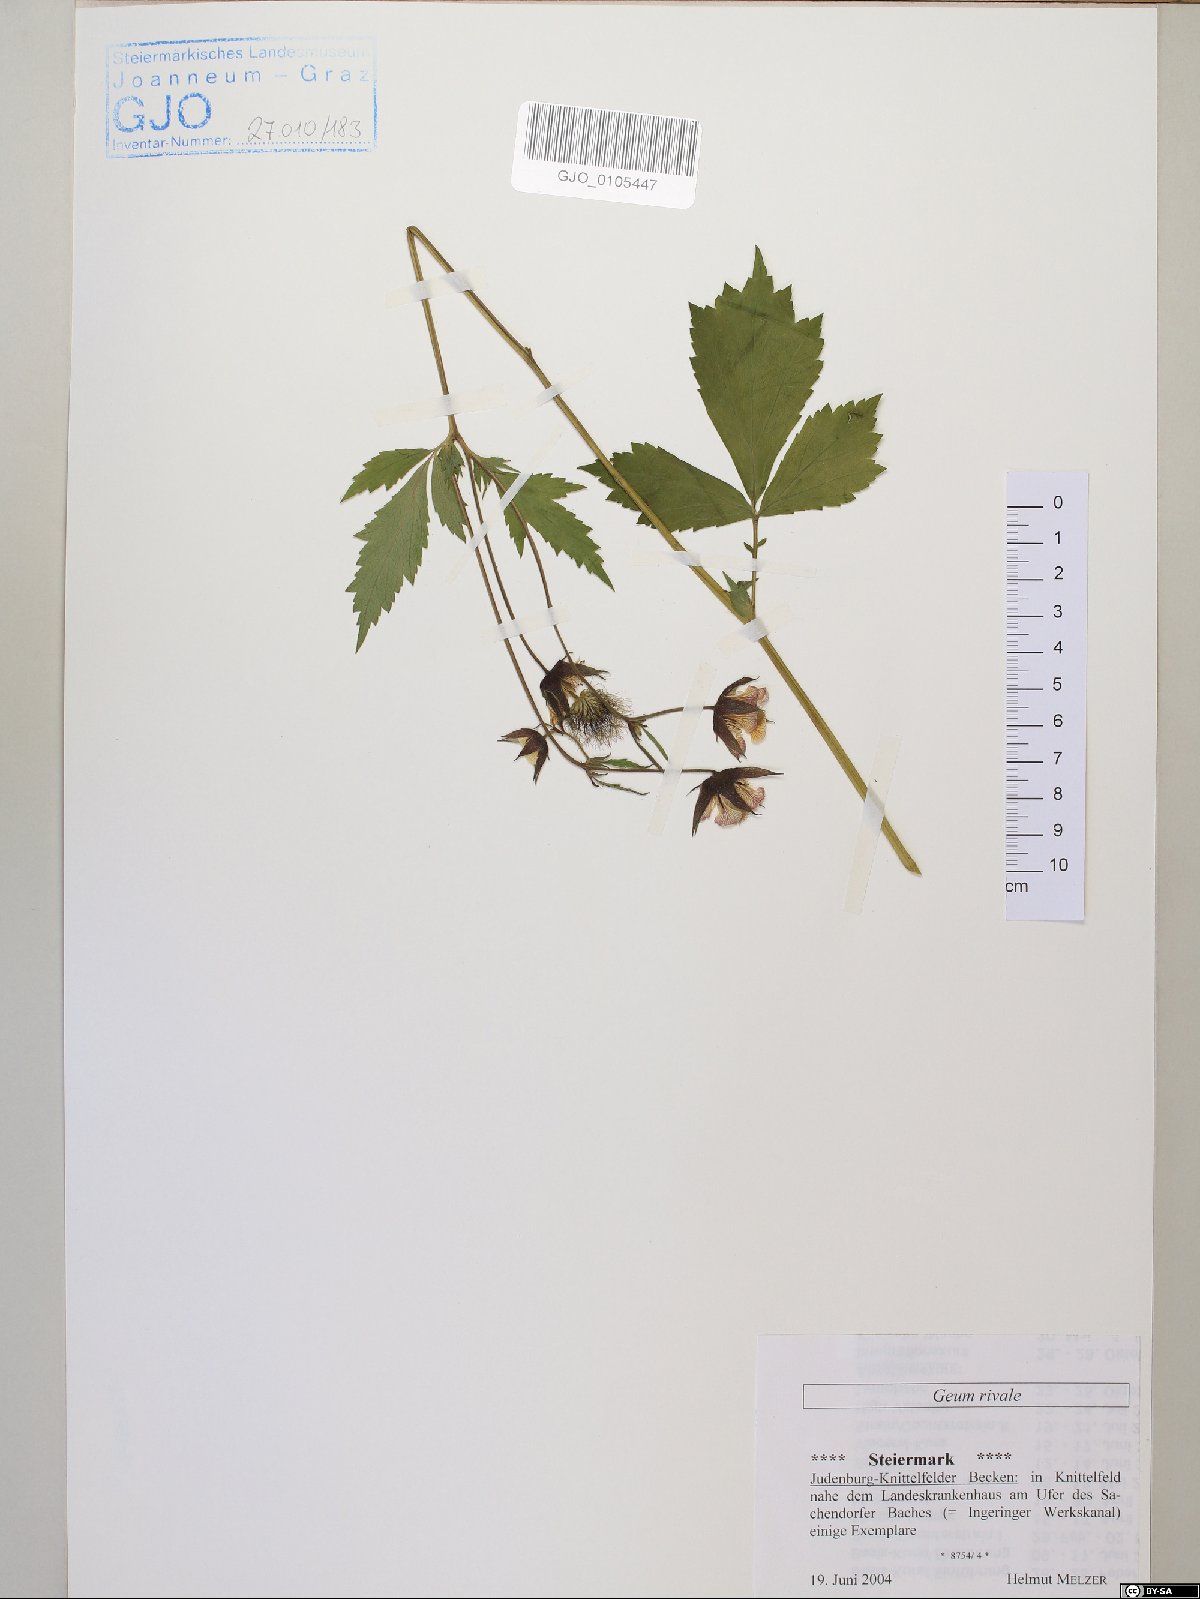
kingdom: Plantae
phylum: Tracheophyta
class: Magnoliopsida
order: Rosales
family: Rosaceae
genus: Geum
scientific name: Geum rivale
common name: Water avens
